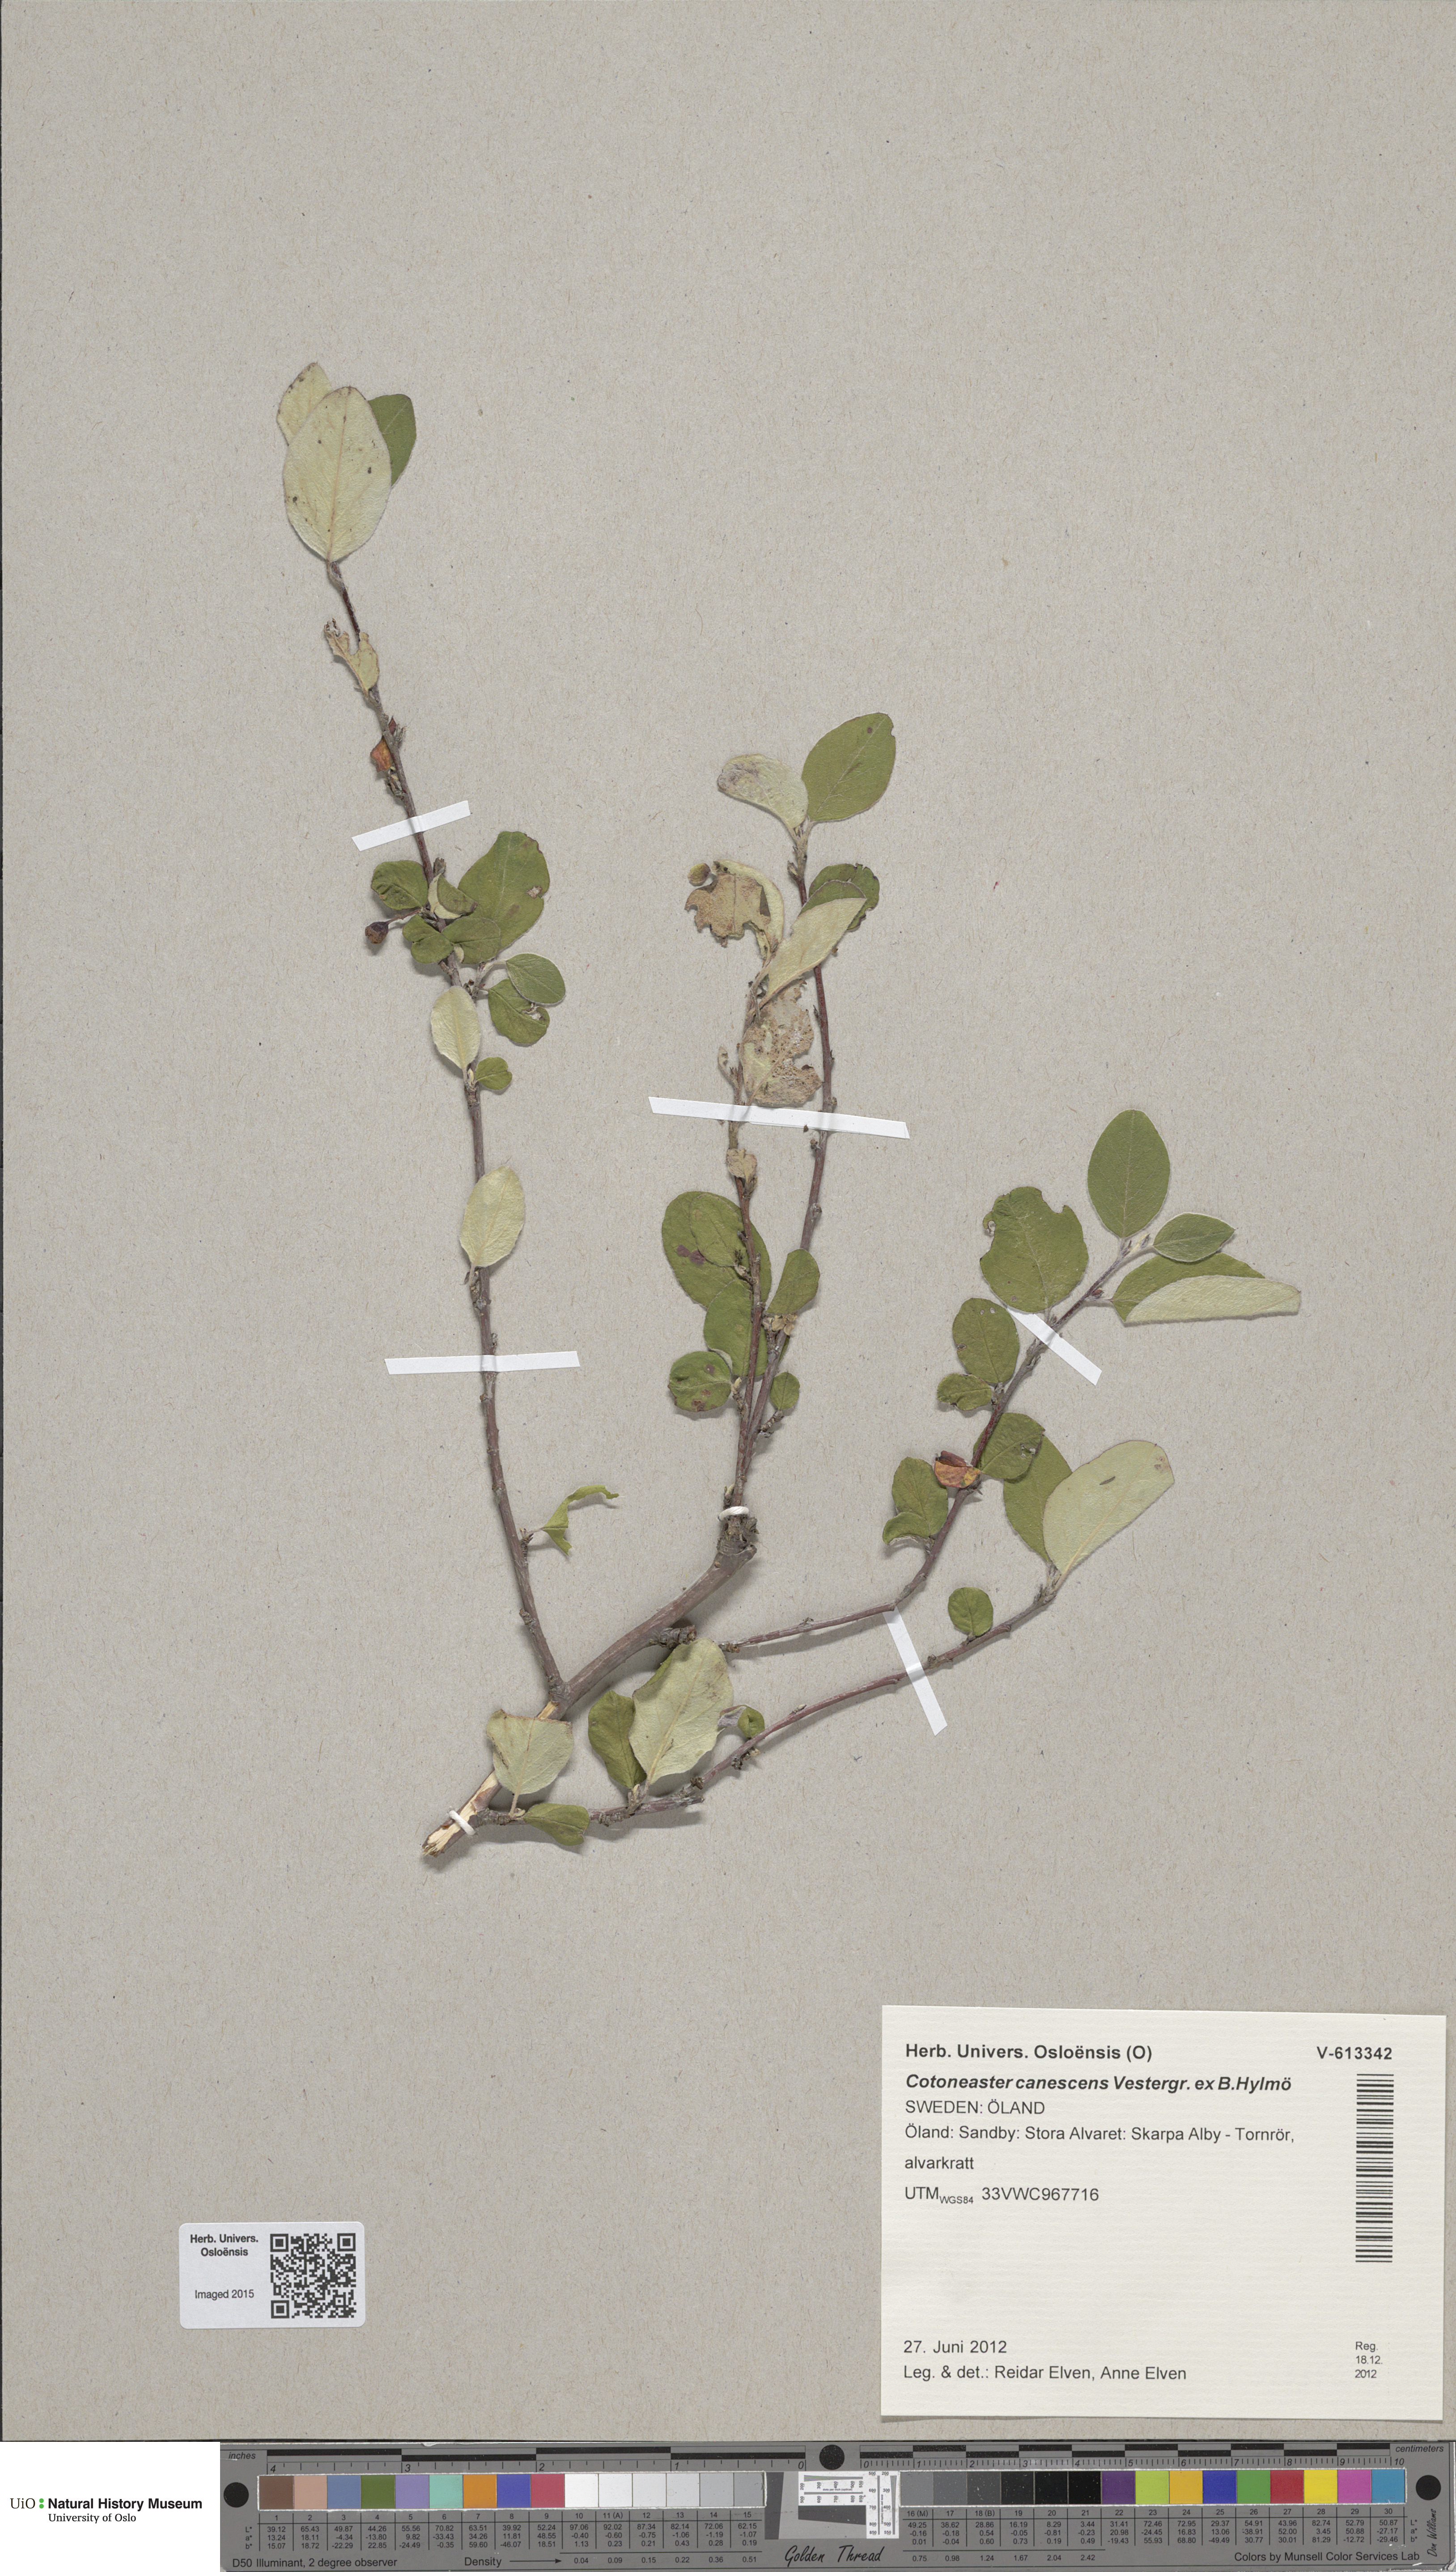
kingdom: Plantae
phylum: Tracheophyta
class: Magnoliopsida
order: Rosales
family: Rosaceae
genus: Cotoneaster
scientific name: Cotoneaster integerrimus
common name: Wild cotoneaster
